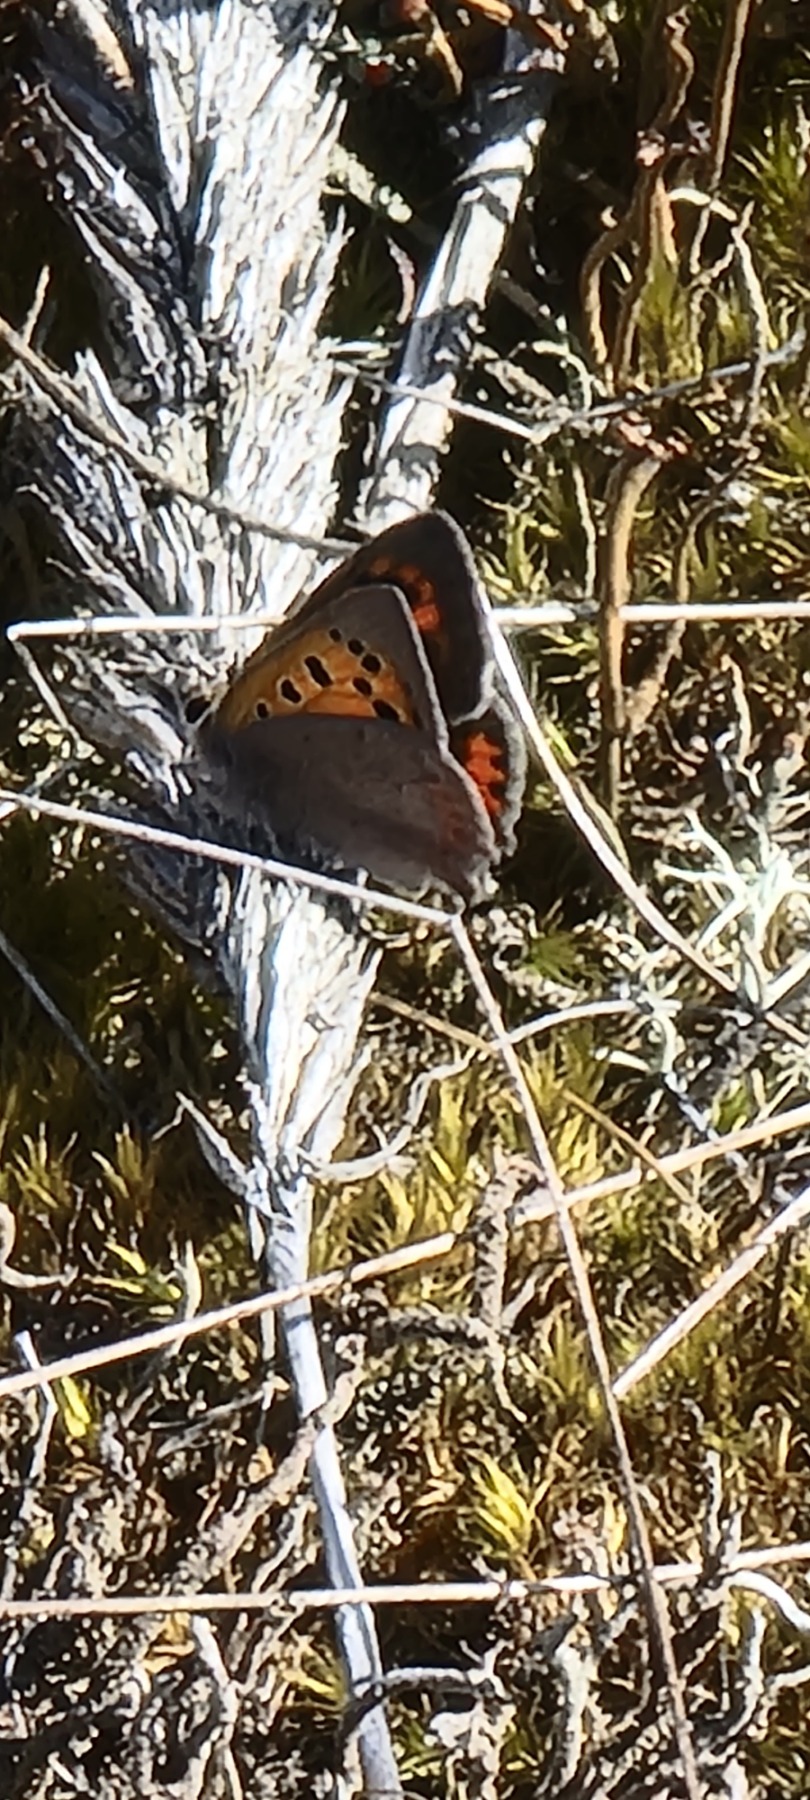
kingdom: Animalia
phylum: Arthropoda
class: Insecta
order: Lepidoptera
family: Lycaenidae
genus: Lycaena
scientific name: Lycaena phlaeas
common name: Lille ildfugl
